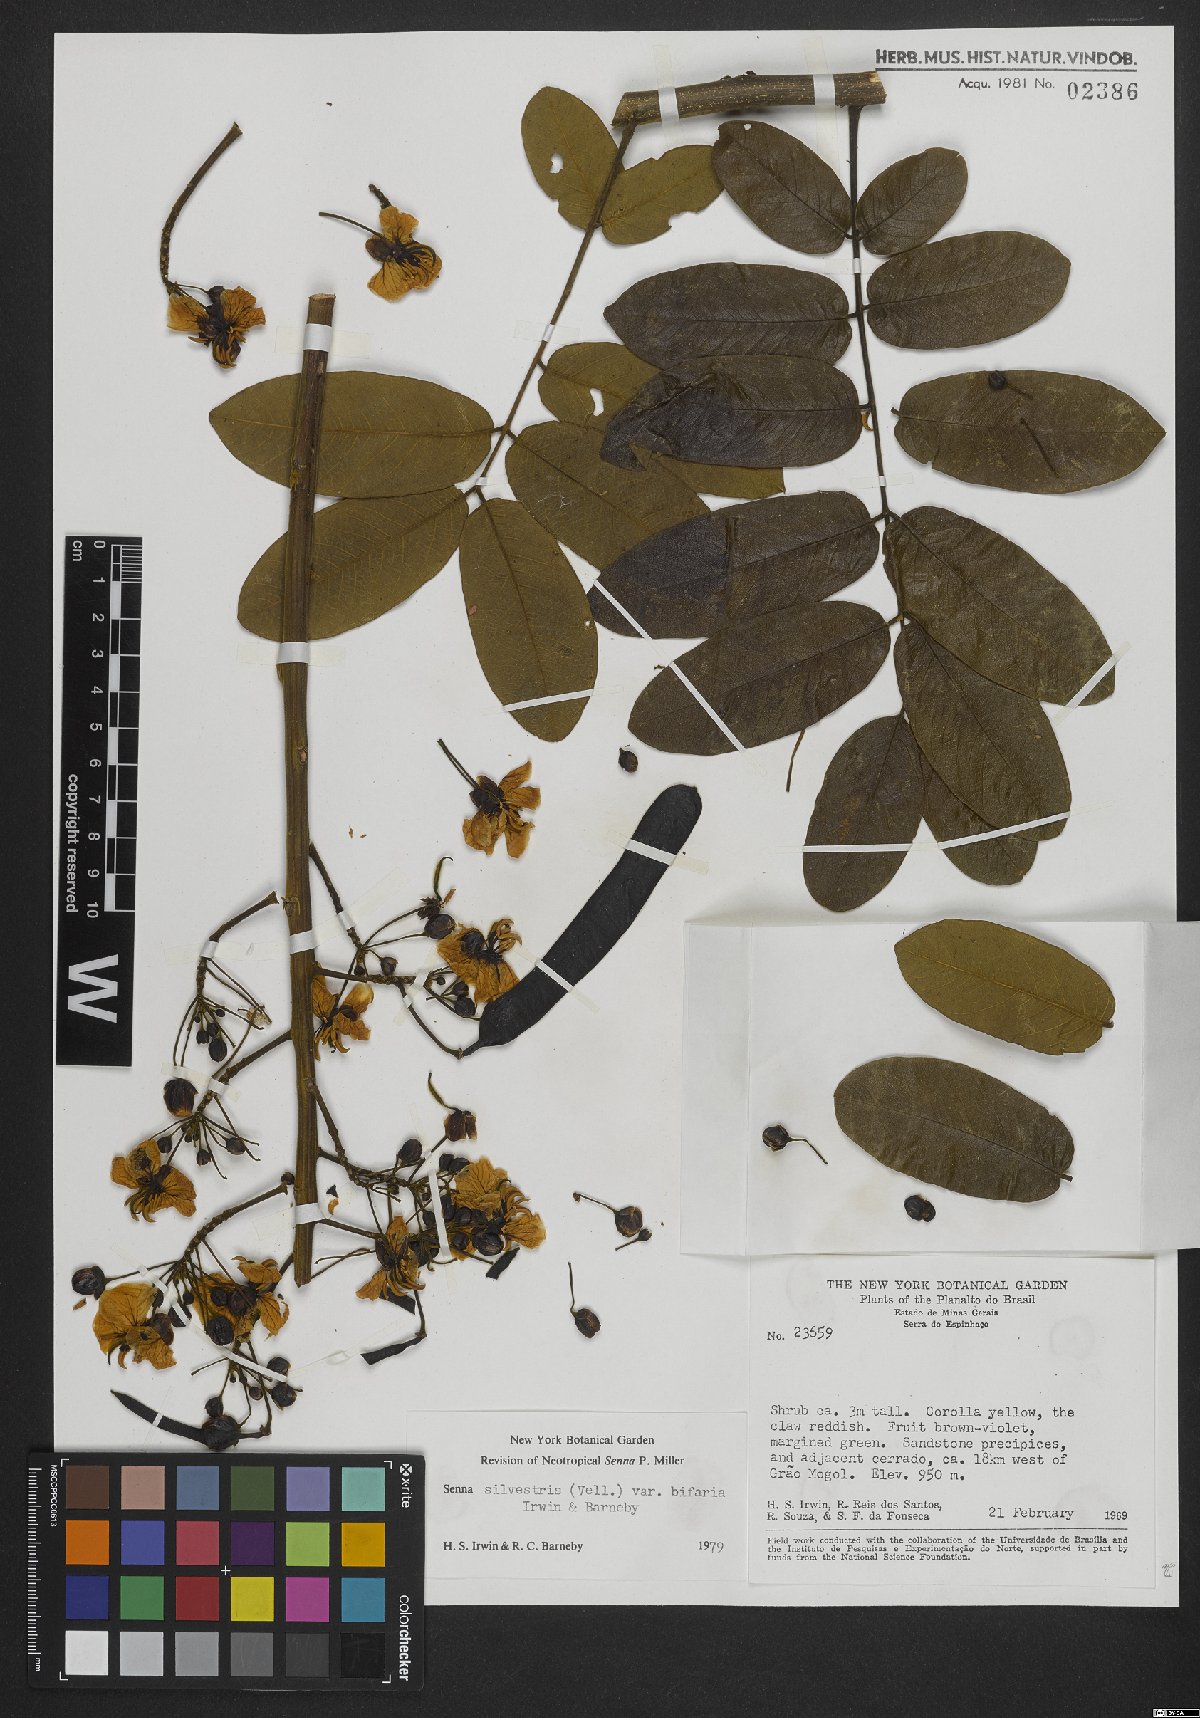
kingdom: Plantae
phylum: Tracheophyta
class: Magnoliopsida
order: Fabales
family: Fabaceae
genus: Senna
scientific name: Senna silvestris
